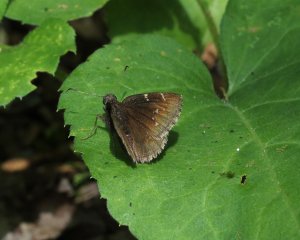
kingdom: Animalia
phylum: Arthropoda
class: Insecta
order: Lepidoptera
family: Hesperiidae
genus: Autochton
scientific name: Autochton
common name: Northern Cloudywing
